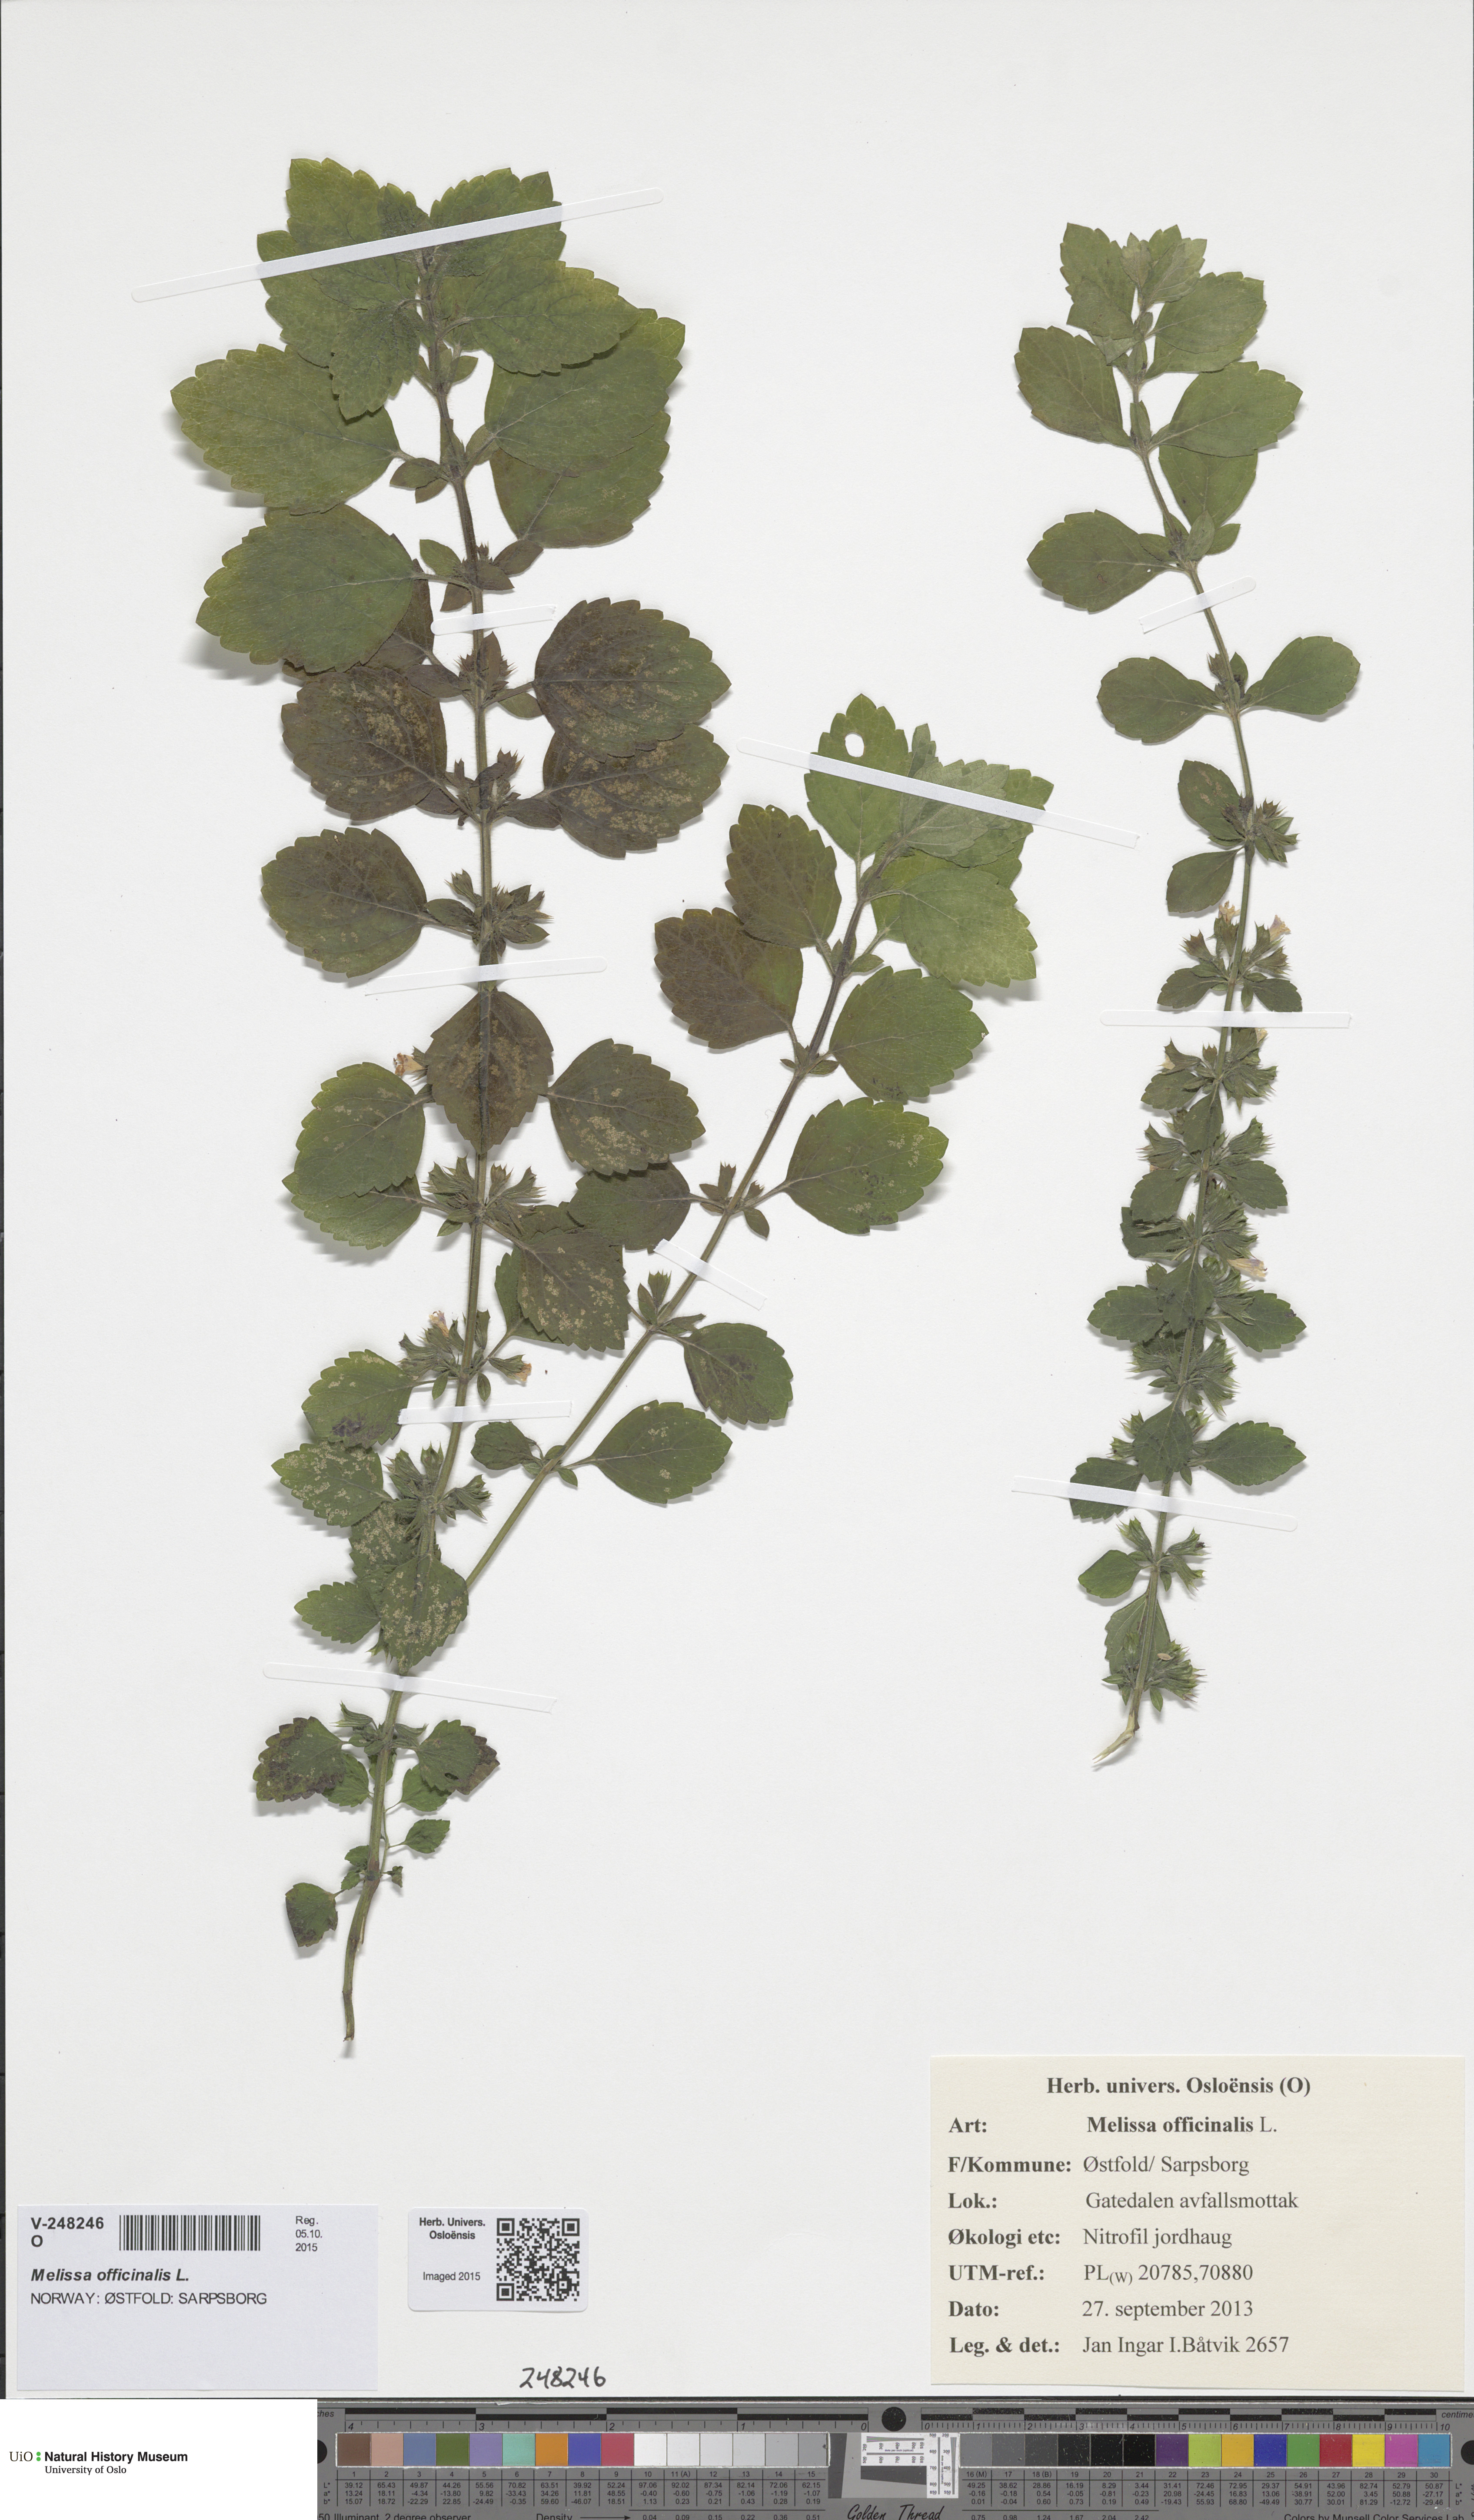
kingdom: Plantae
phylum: Tracheophyta
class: Magnoliopsida
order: Lamiales
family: Lamiaceae
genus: Melissa
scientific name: Melissa officinalis
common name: Balm
